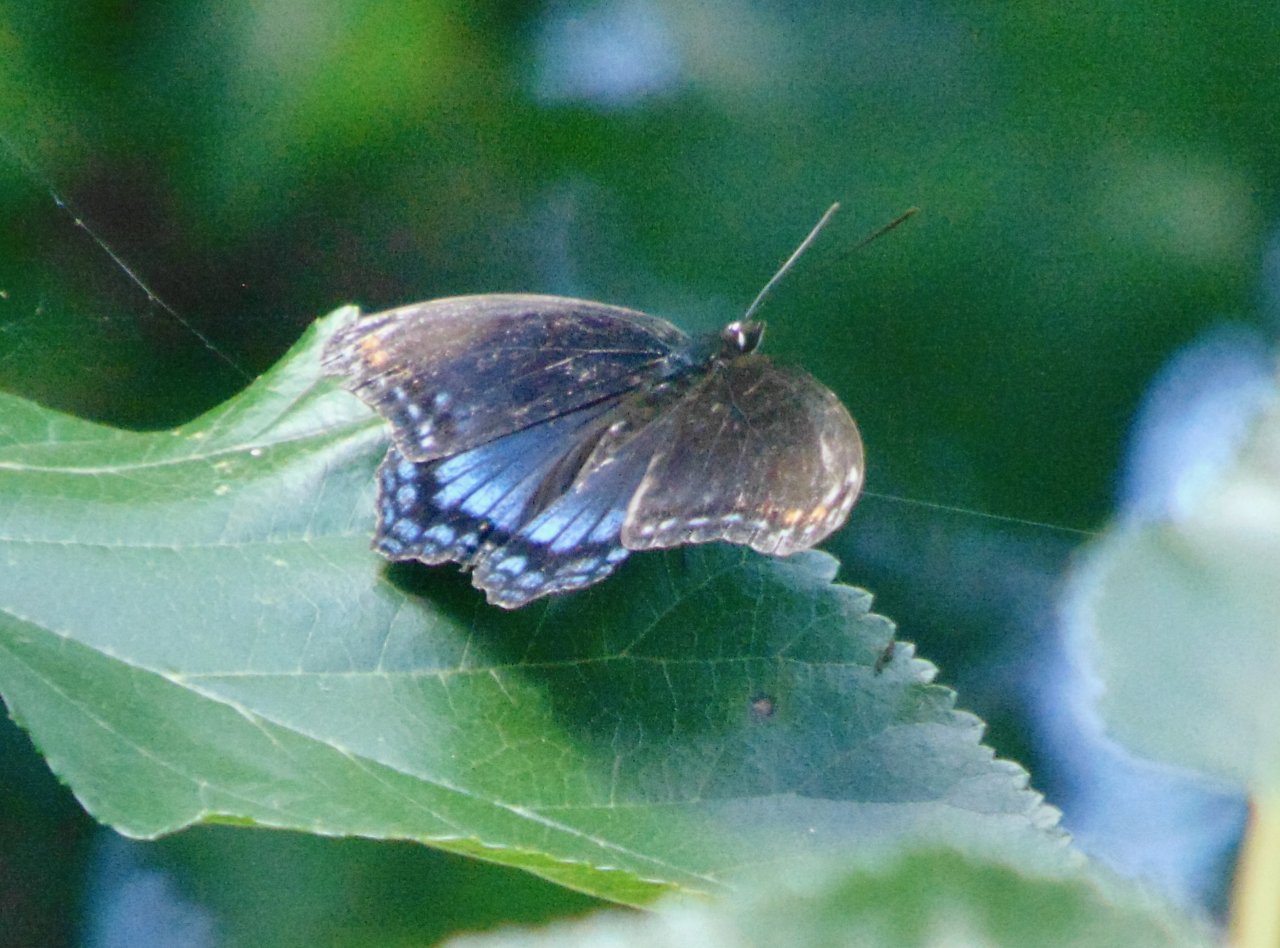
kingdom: Animalia
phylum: Arthropoda
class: Insecta
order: Lepidoptera
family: Nymphalidae
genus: Limenitis
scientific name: Limenitis astyanax
